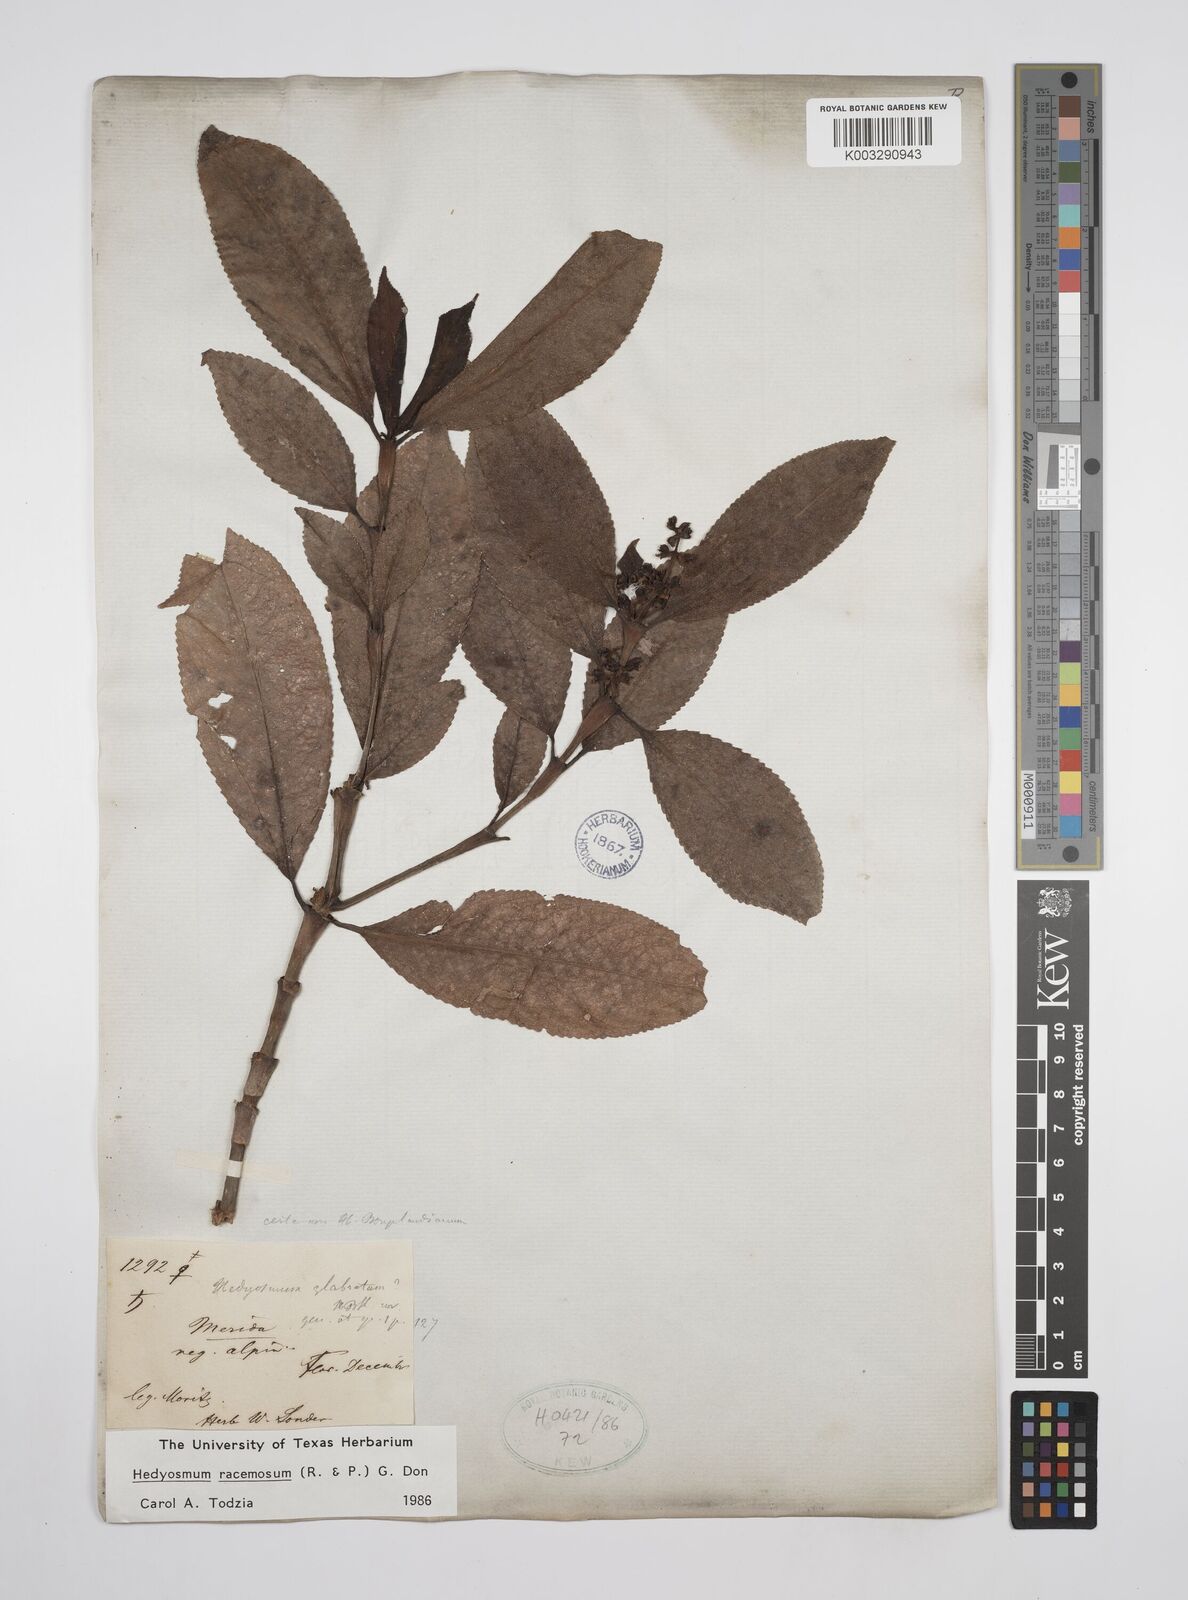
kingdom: Plantae
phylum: Tracheophyta
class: Magnoliopsida
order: Chloranthales
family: Chloranthaceae
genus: Hedyosmum
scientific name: Hedyosmum racemosum
